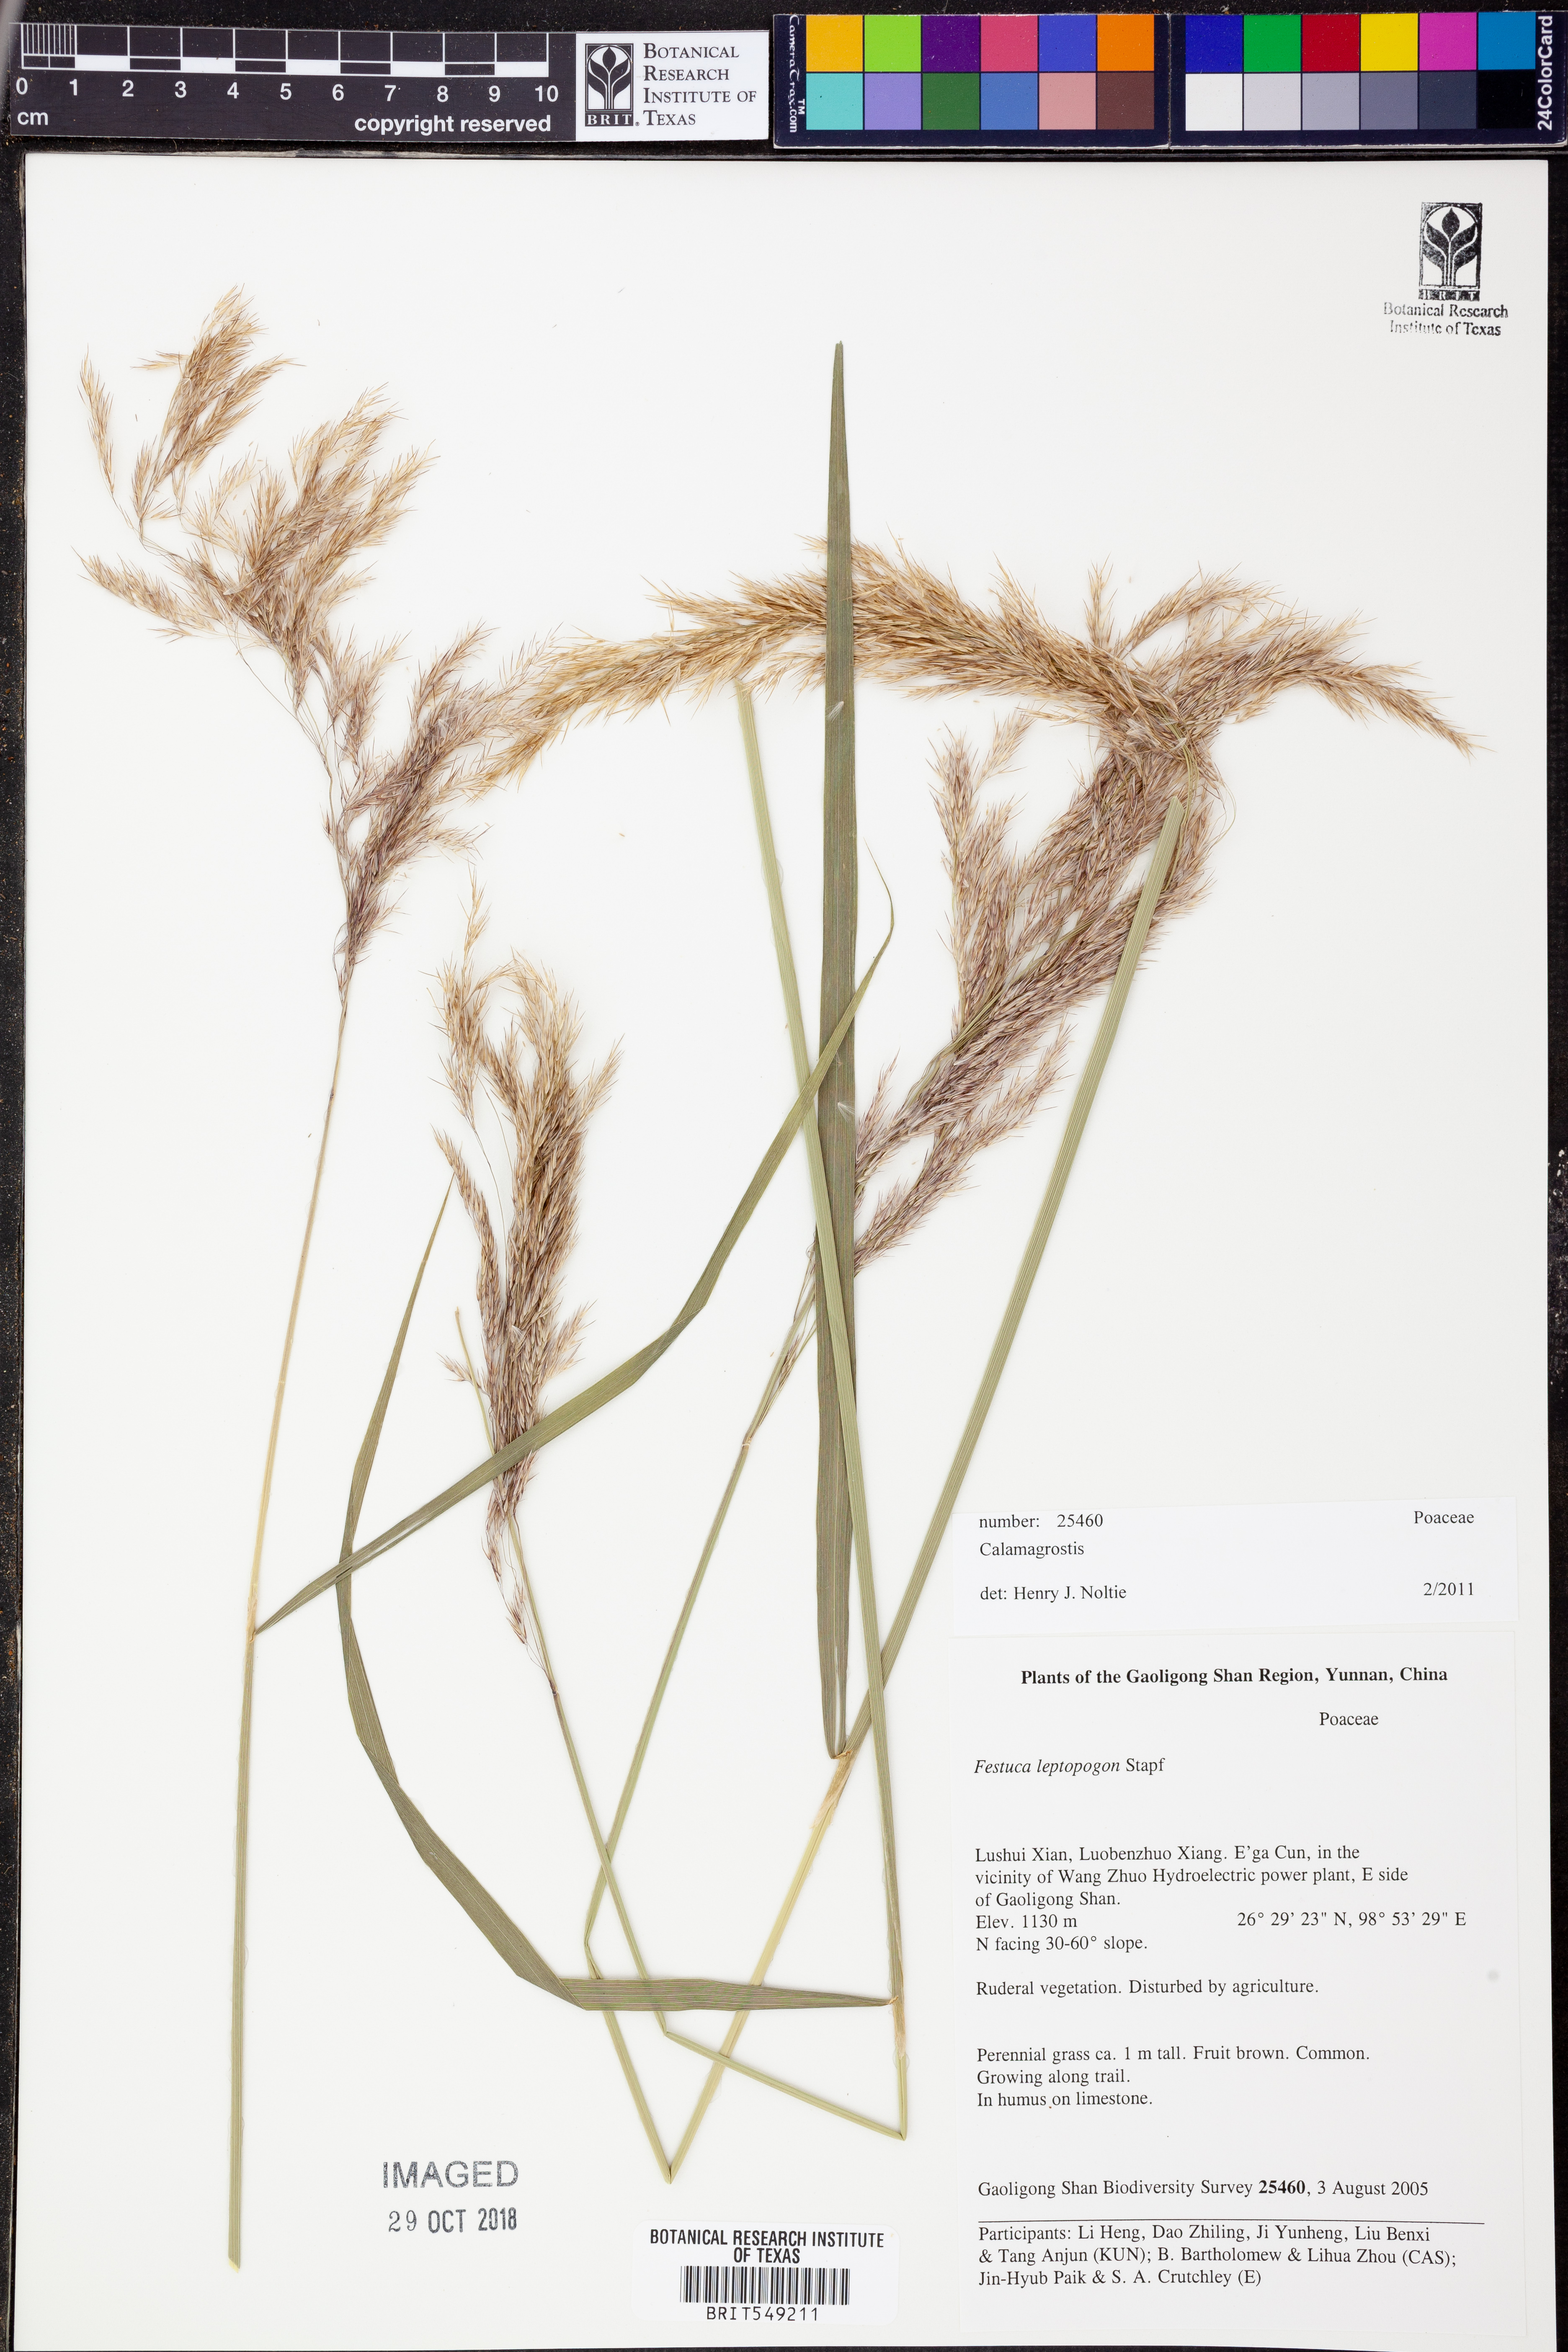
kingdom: Plantae
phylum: Tracheophyta
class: Liliopsida
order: Poales
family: Poaceae
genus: Calamagrostis
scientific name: Calamagrostis
